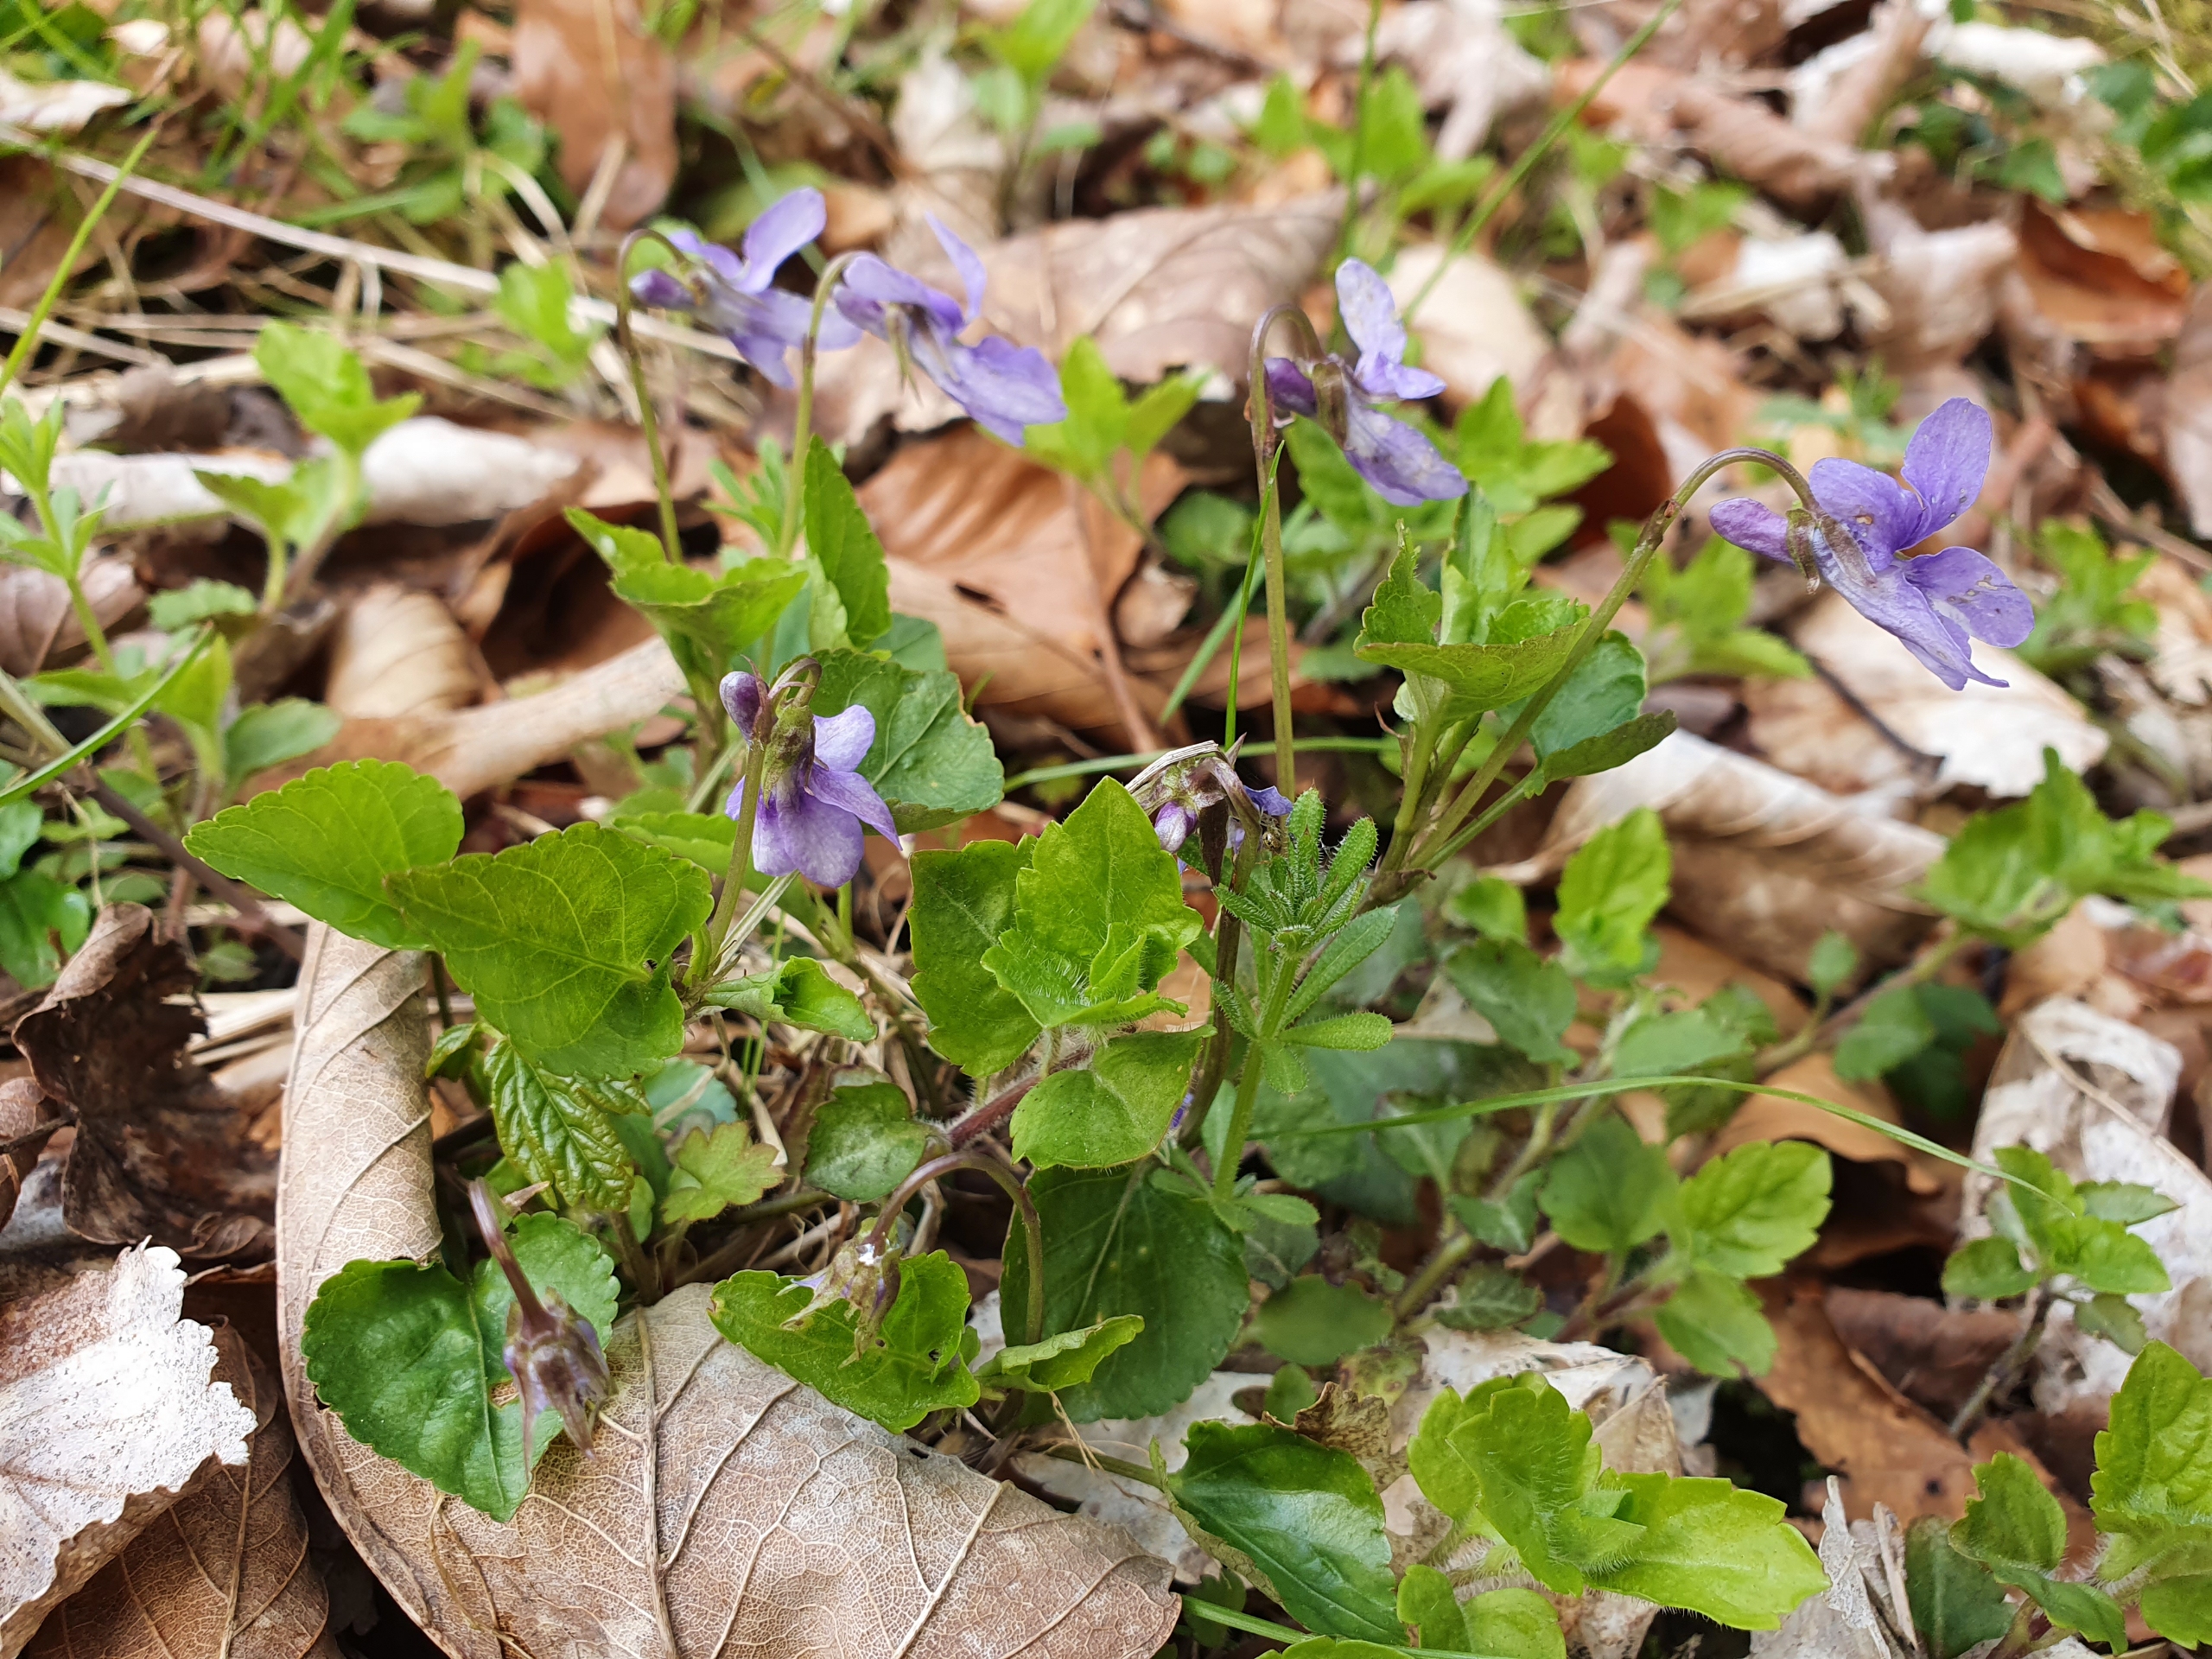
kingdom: Plantae
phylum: Tracheophyta
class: Magnoliopsida
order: Malpighiales
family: Violaceae
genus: Viola
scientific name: Viola reichenbachiana
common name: Skov-viol
